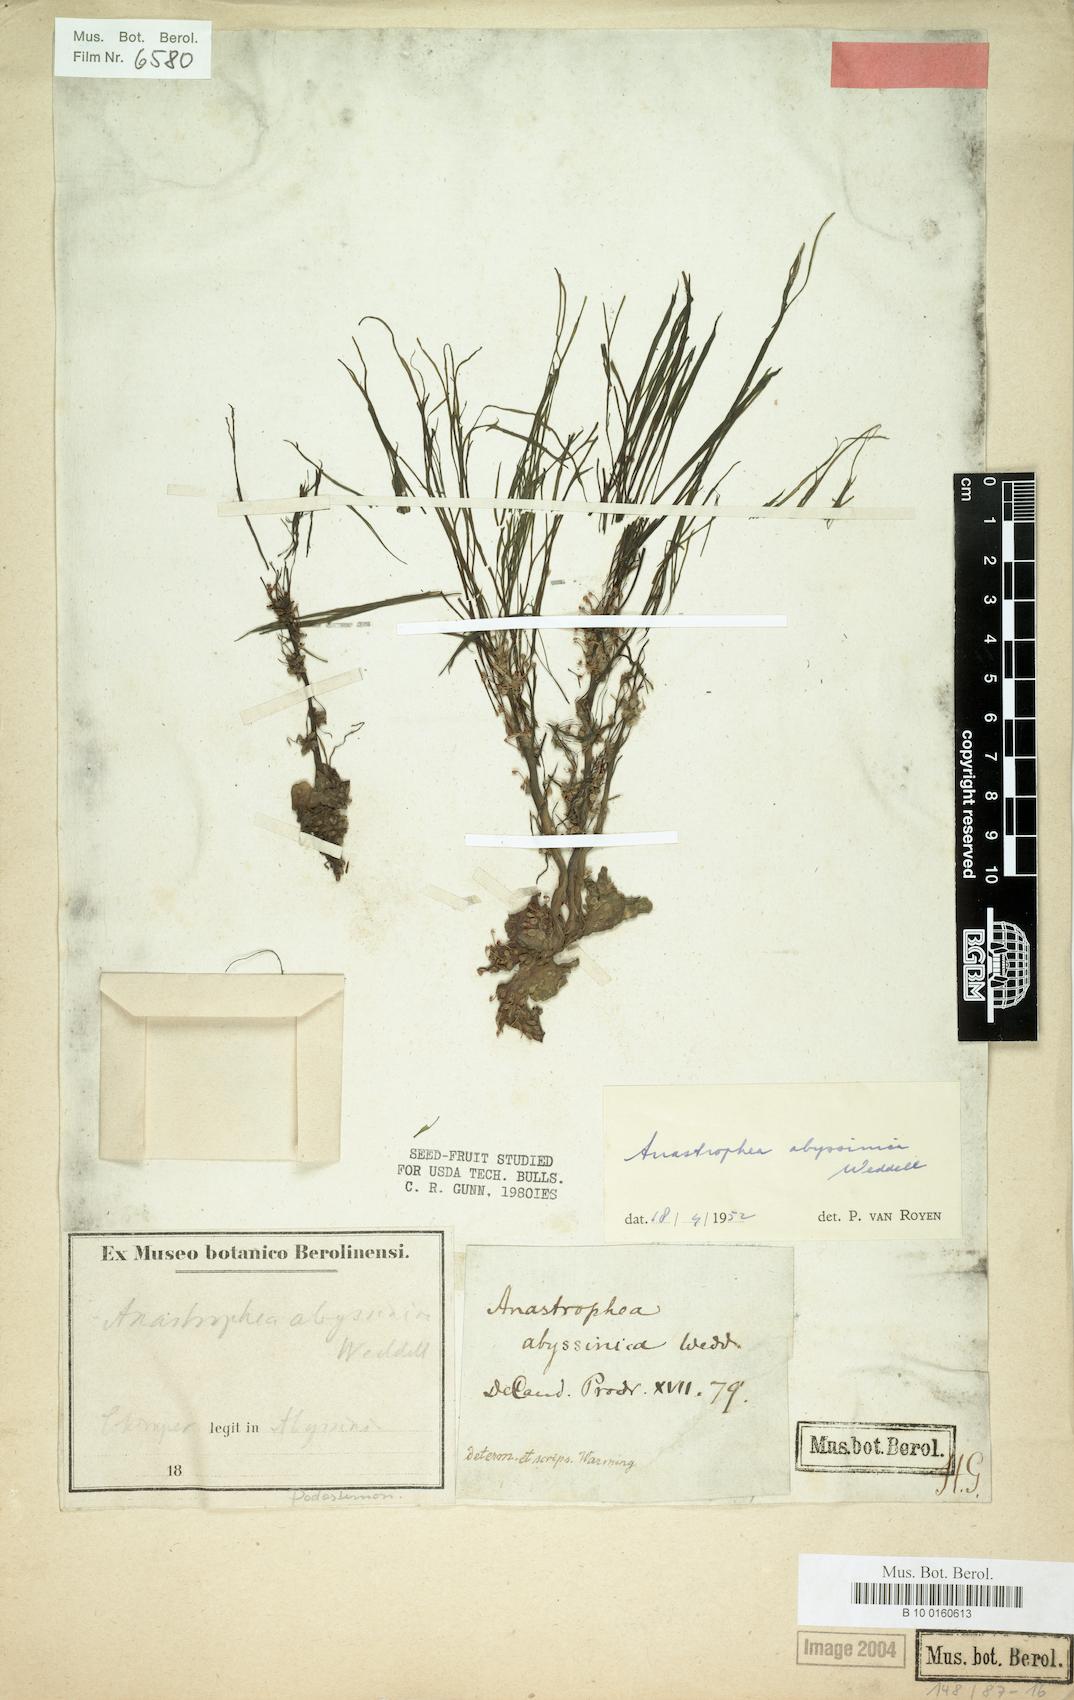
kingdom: Plantae
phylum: Tracheophyta
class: Magnoliopsida
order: Malpighiales
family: Podostemaceae
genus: Sphaerothylax
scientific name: Sphaerothylax abyssinica
